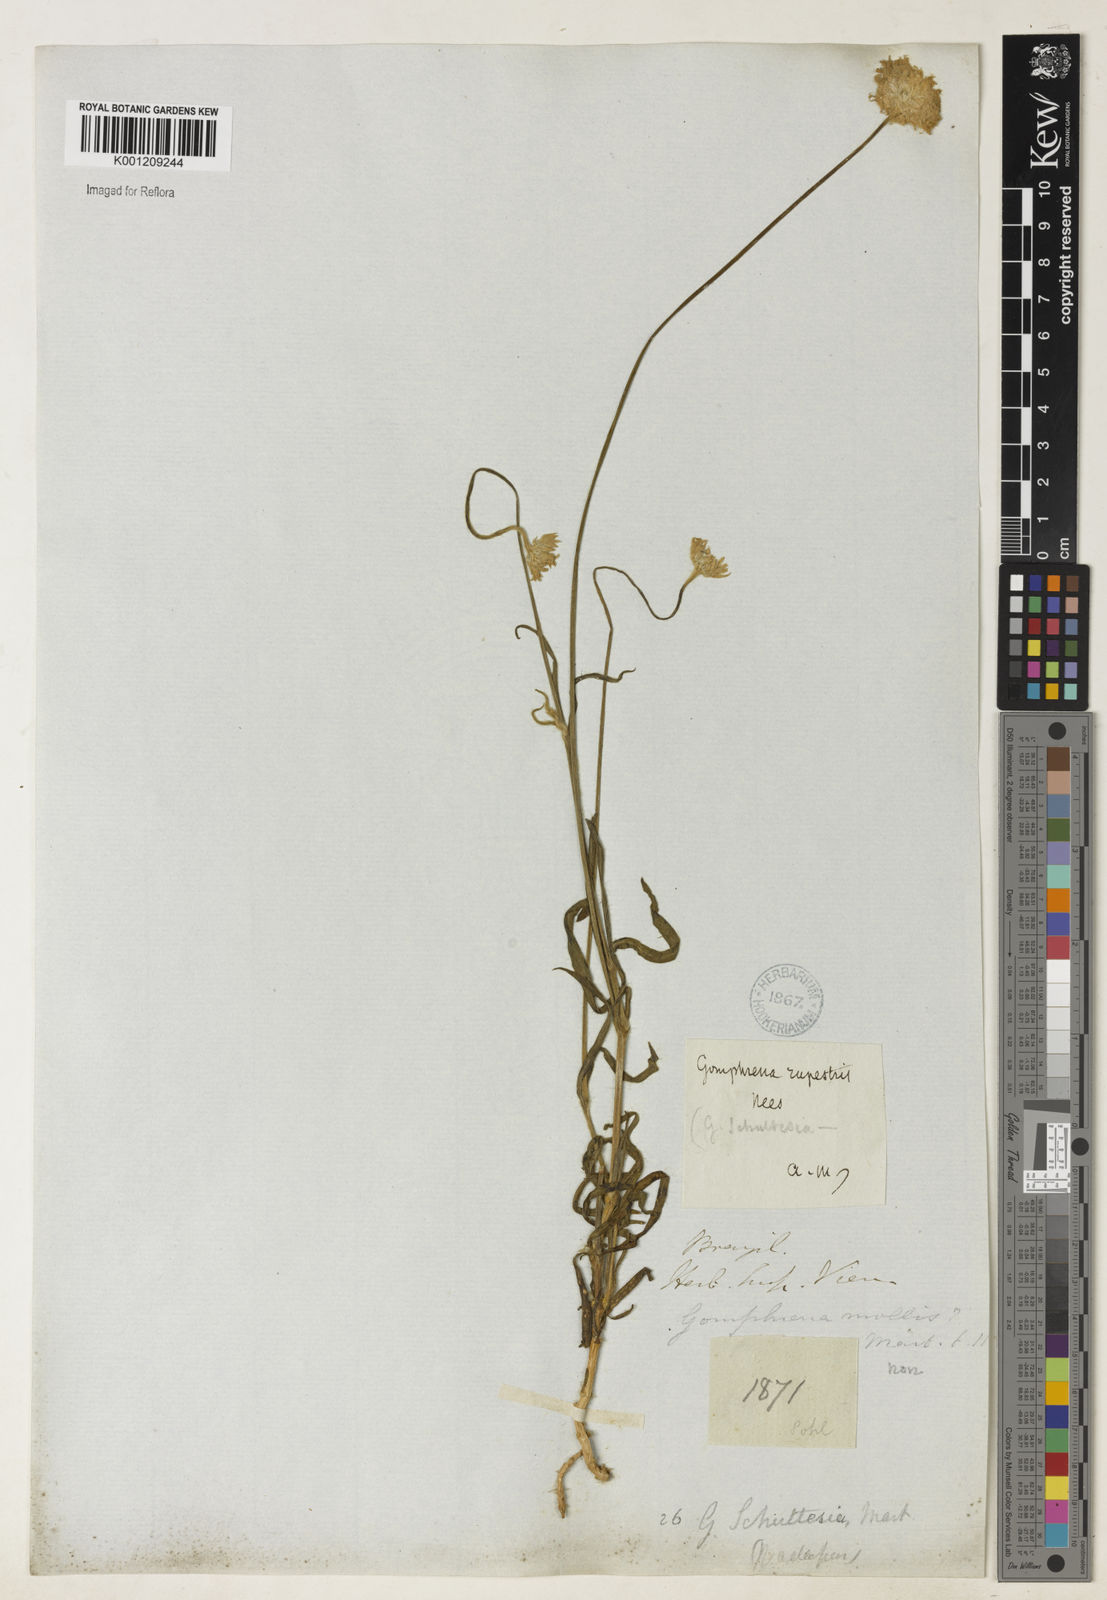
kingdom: Plantae
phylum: Tracheophyta
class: Magnoliopsida
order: Caryophyllales
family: Amaranthaceae
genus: Gomphrena
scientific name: Gomphrena rupestris
